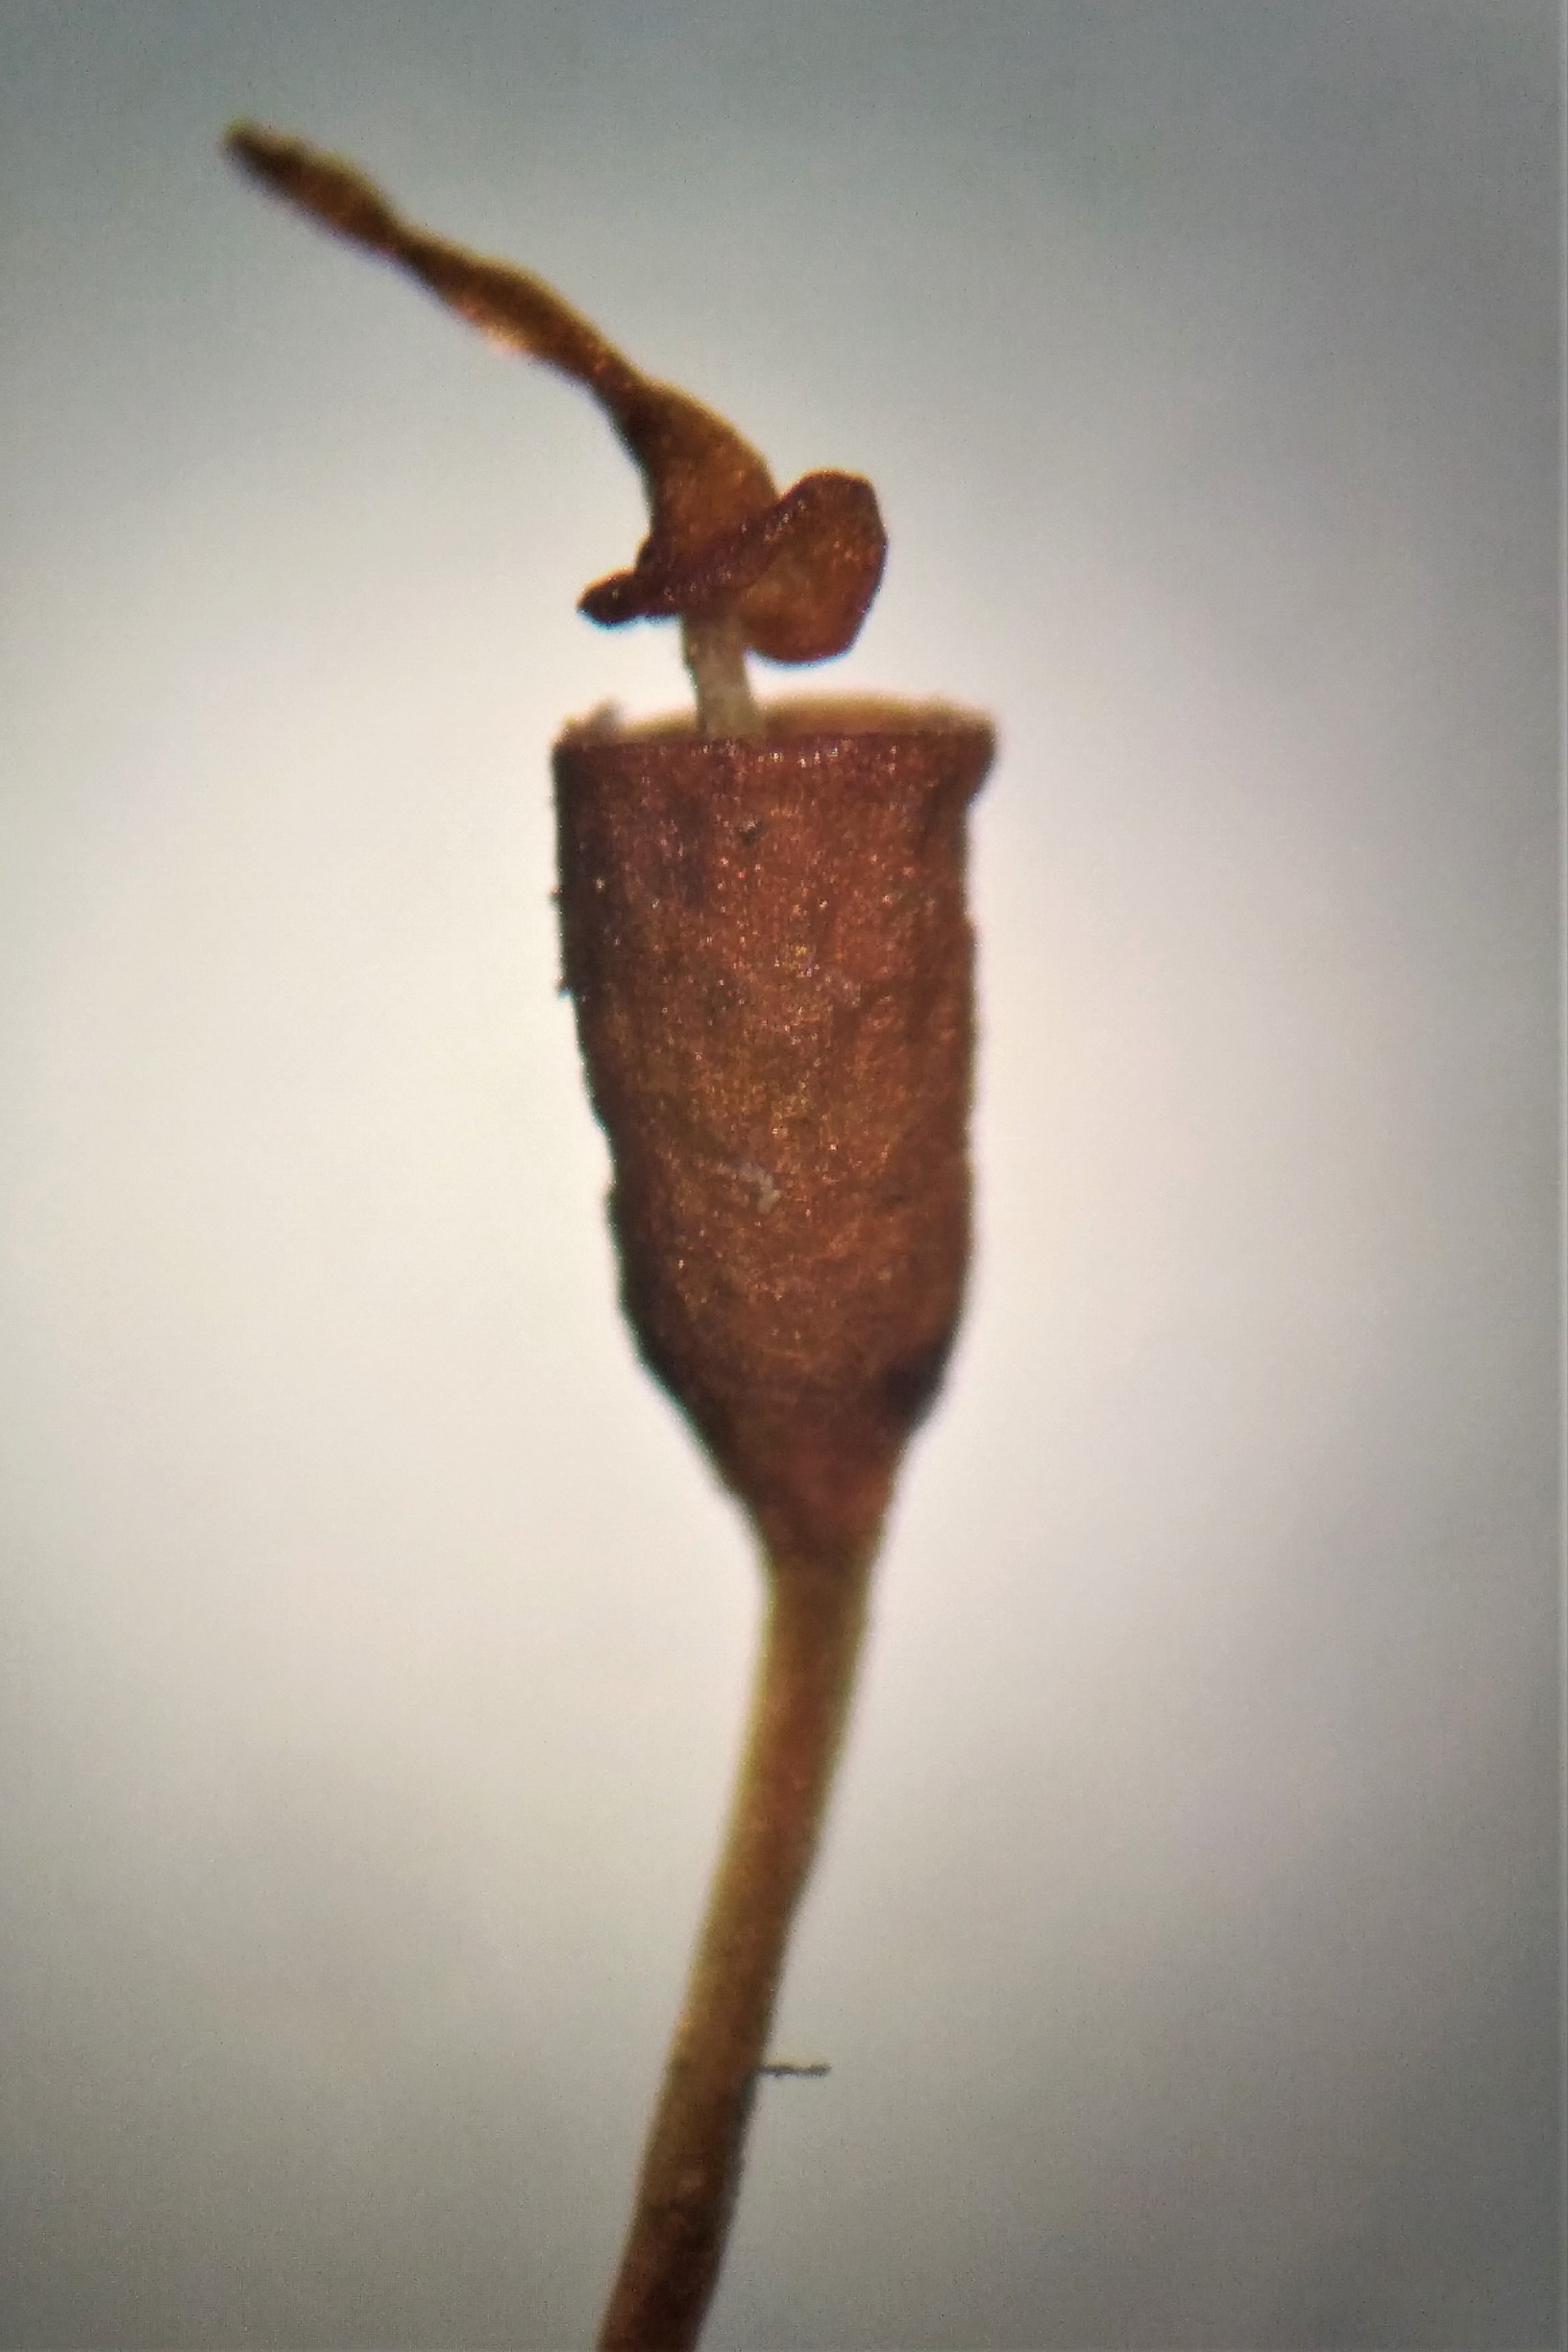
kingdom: Plantae
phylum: Bryophyta
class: Bryopsida
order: Pottiales
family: Pottiaceae
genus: Hennediella
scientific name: Hennediella heimii
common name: Salt-bægermos
